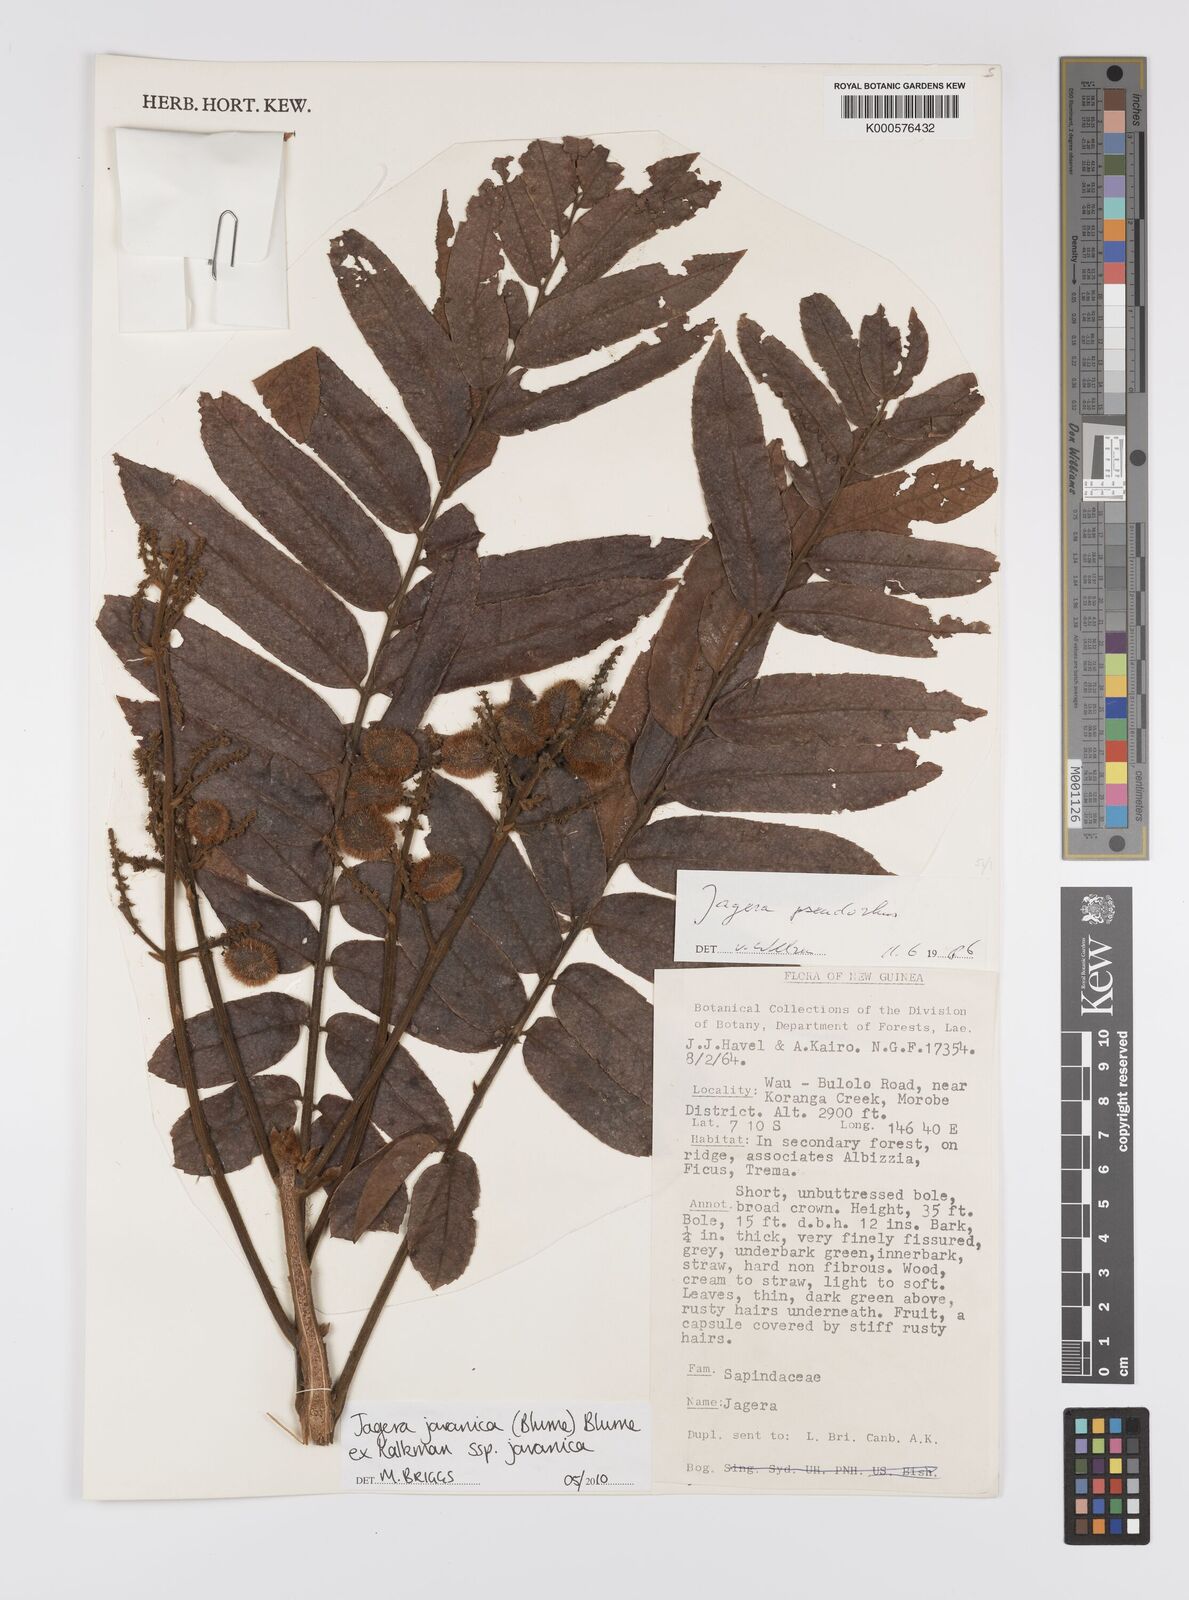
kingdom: Plantae
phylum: Tracheophyta
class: Magnoliopsida
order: Sapindales
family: Sapindaceae
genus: Jagera
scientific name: Jagera javanica
